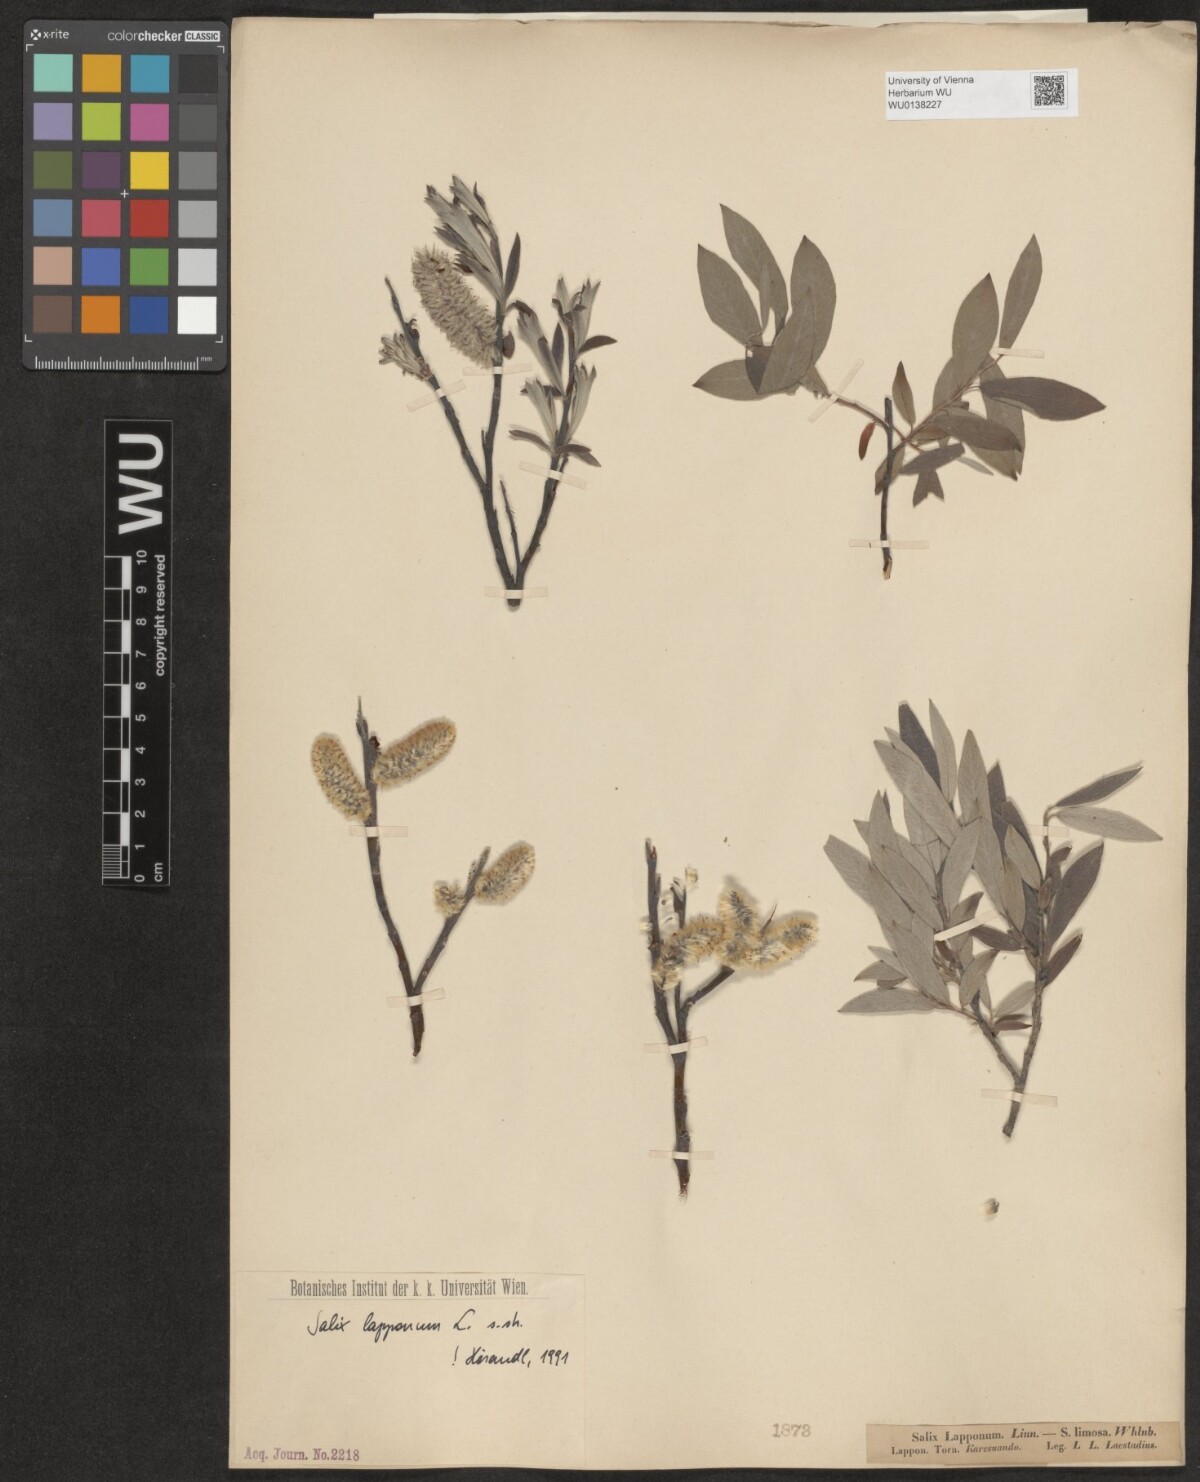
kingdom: Plantae
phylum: Tracheophyta
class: Magnoliopsida
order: Malpighiales
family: Salicaceae
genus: Salix
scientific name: Salix lapponum
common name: Downy willow
